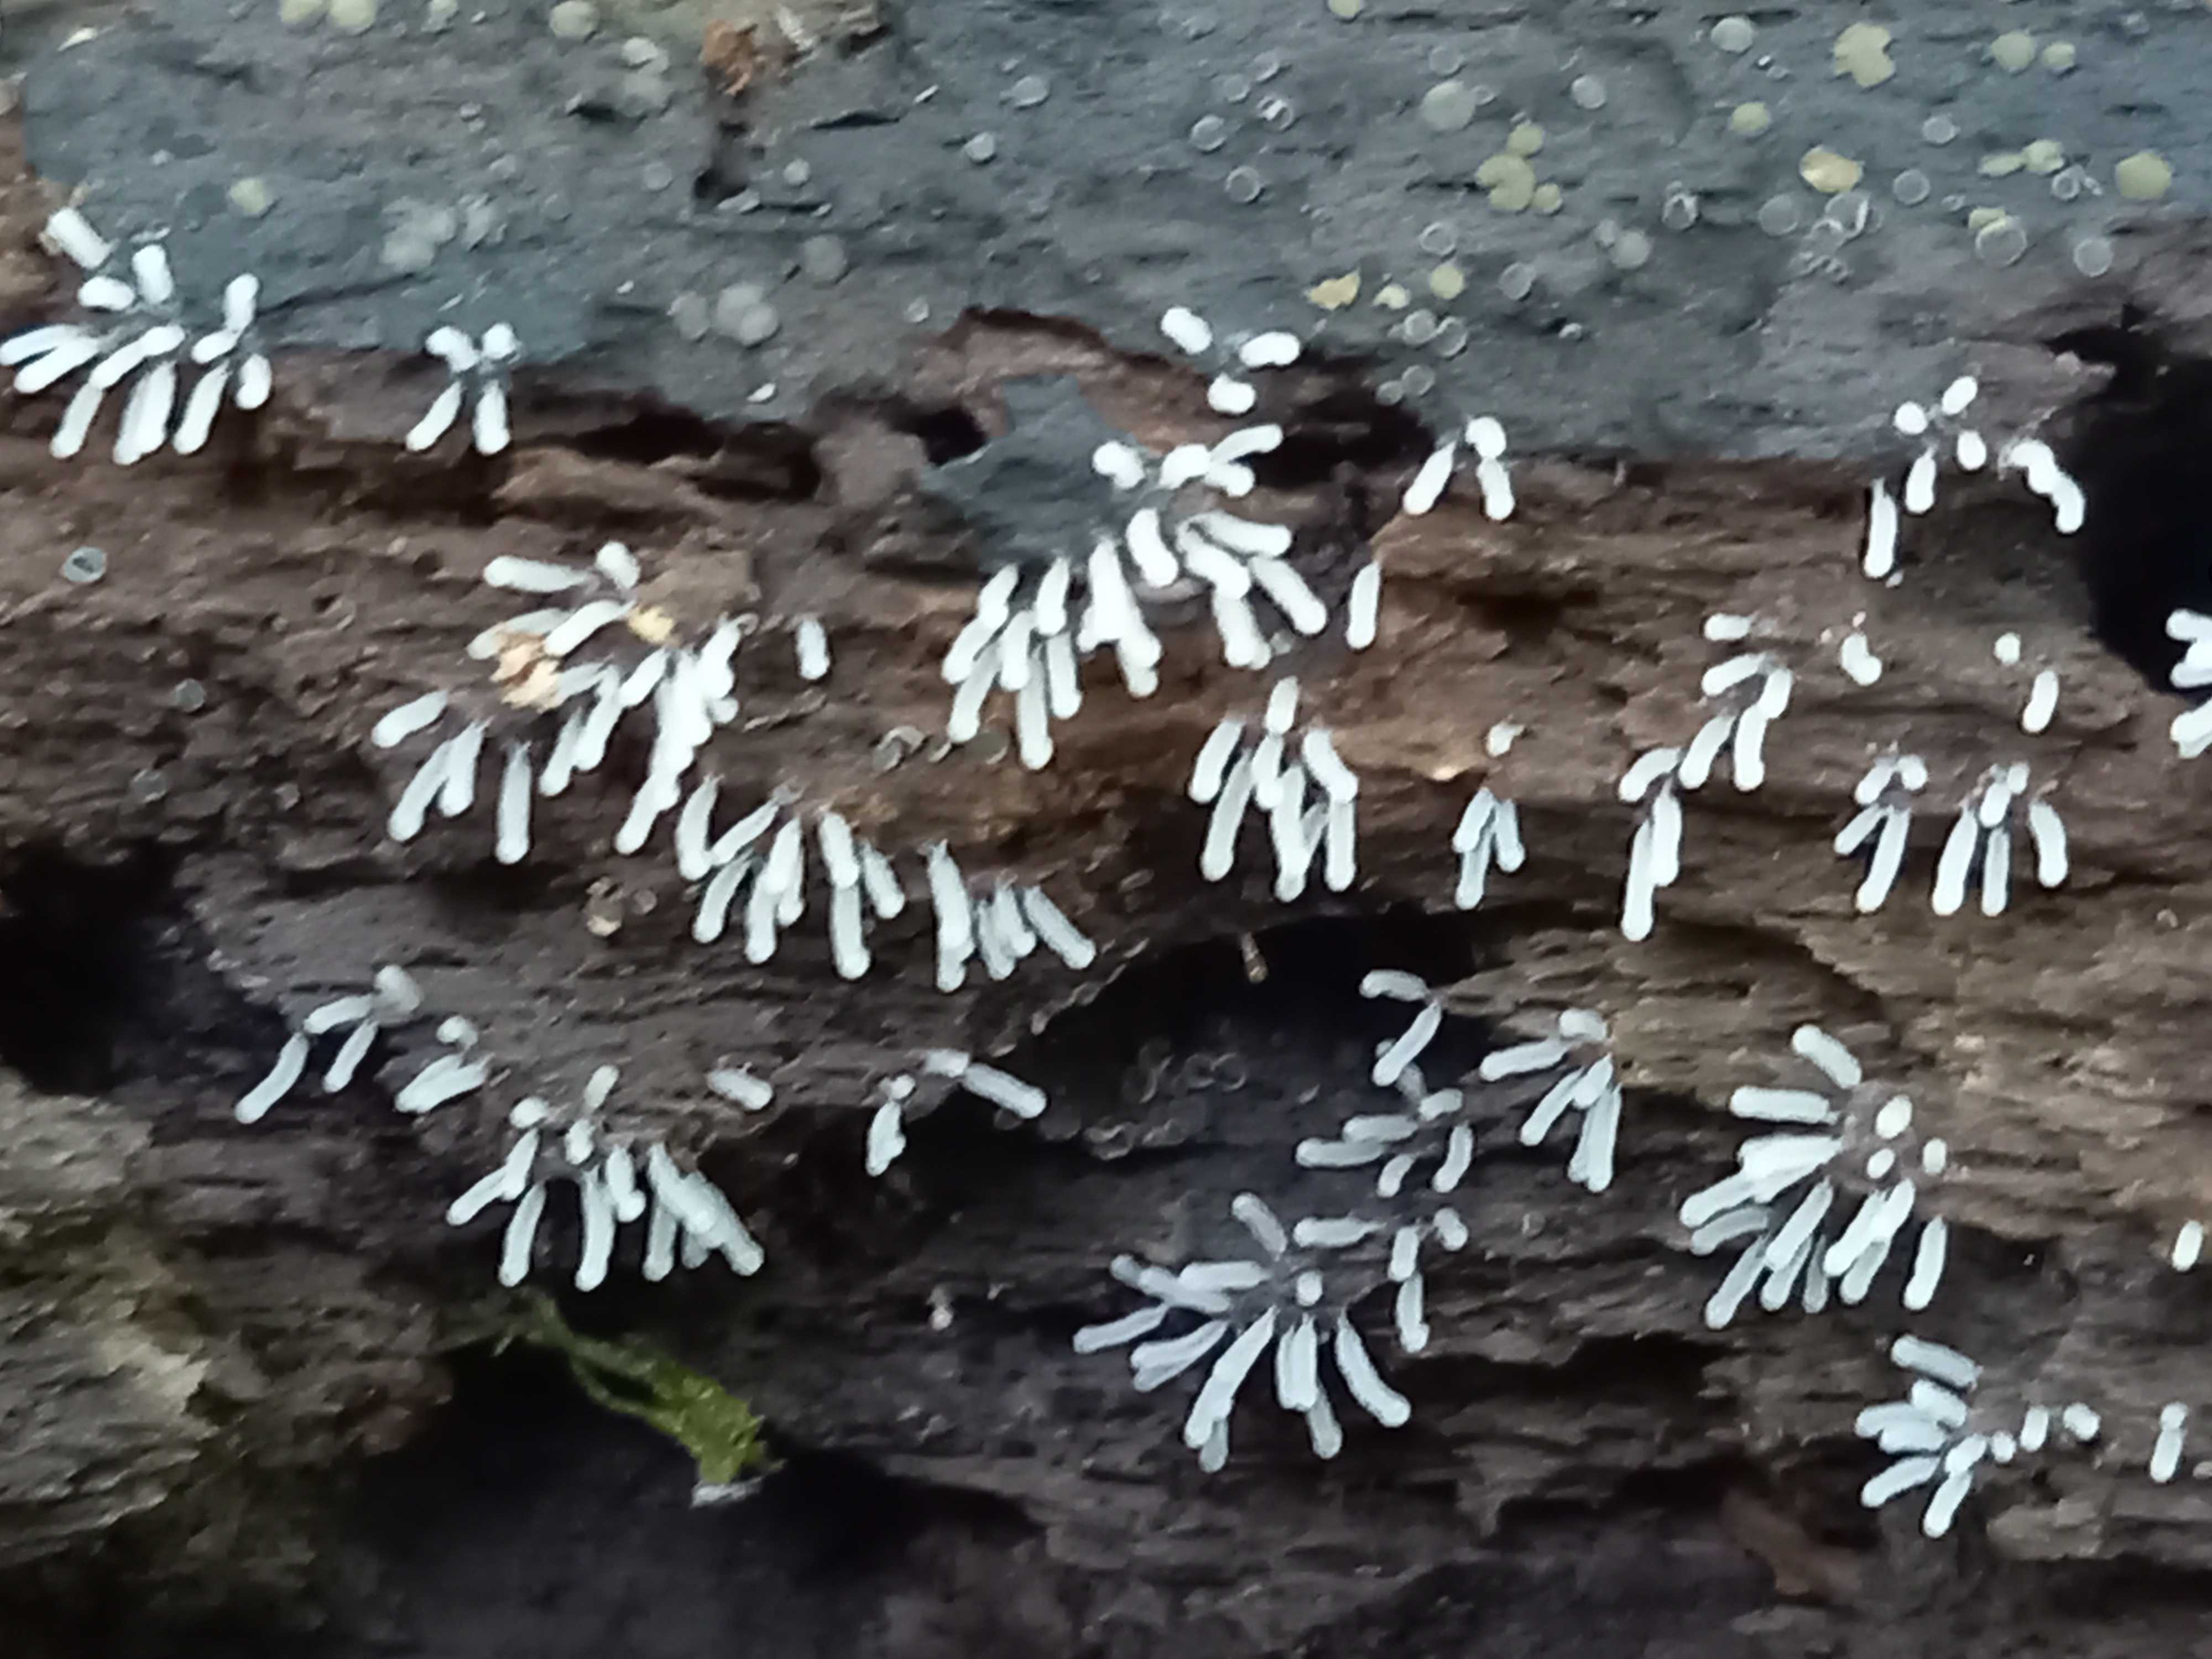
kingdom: Protozoa
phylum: Mycetozoa
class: Protosteliomycetes
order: Ceratiomyxales
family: Ceratiomyxaceae
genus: Ceratiomyxa
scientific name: Ceratiomyxa fruticulosa
